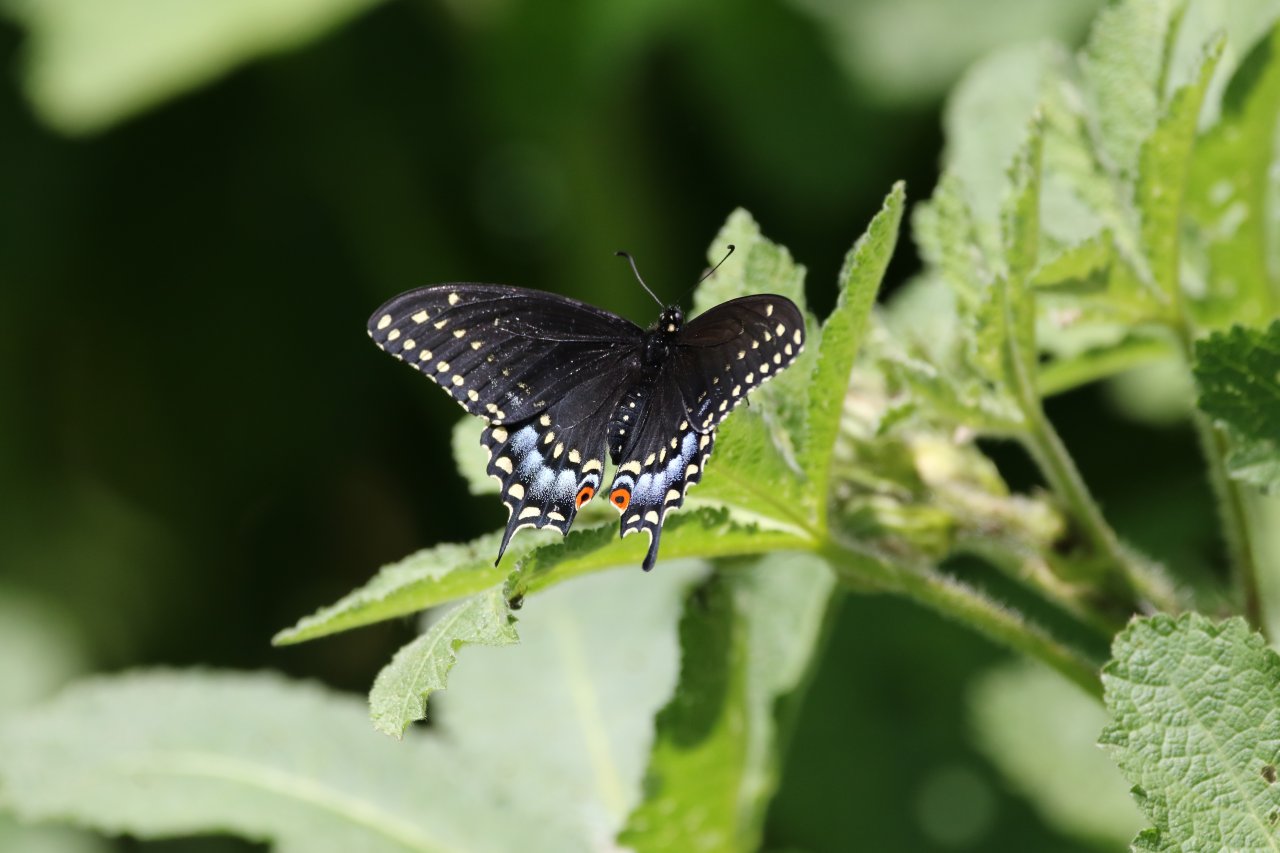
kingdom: Animalia
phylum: Arthropoda
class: Insecta
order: Lepidoptera
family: Papilionidae
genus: Papilio
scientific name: Papilio polyxenes
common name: Black Swallowtail
